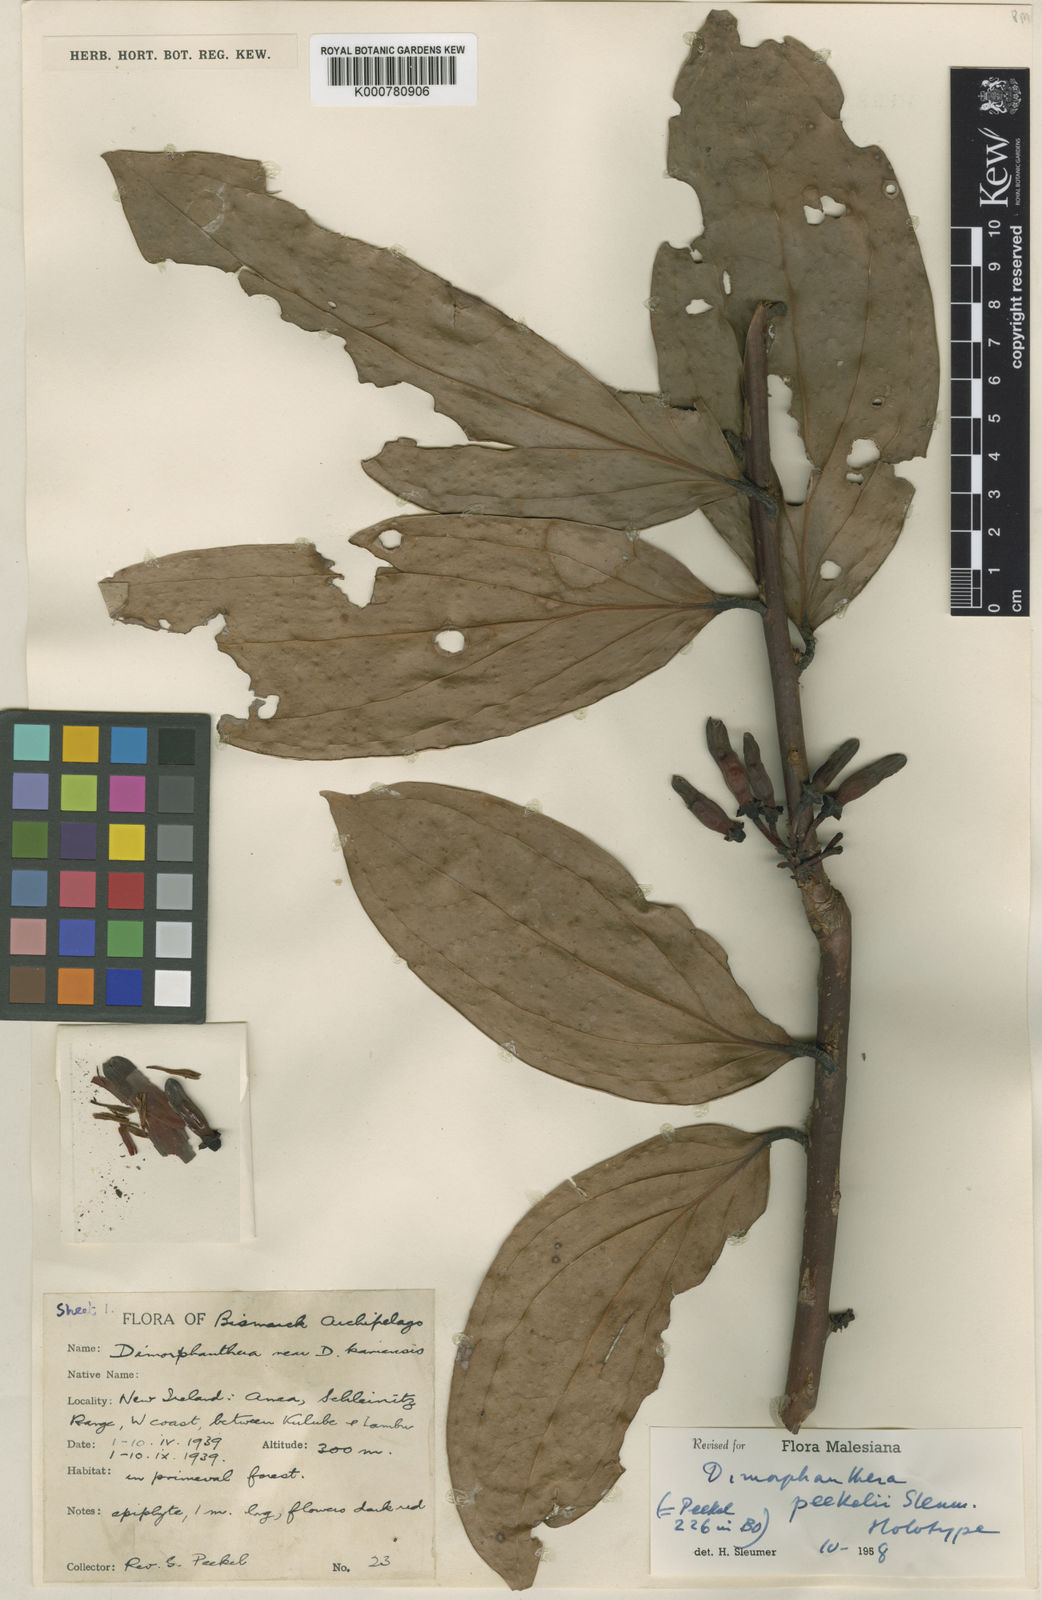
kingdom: Plantae
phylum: Tracheophyta
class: Magnoliopsida
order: Ericales
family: Ericaceae
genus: Dimorphanthera
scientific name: Dimorphanthera peekelii
